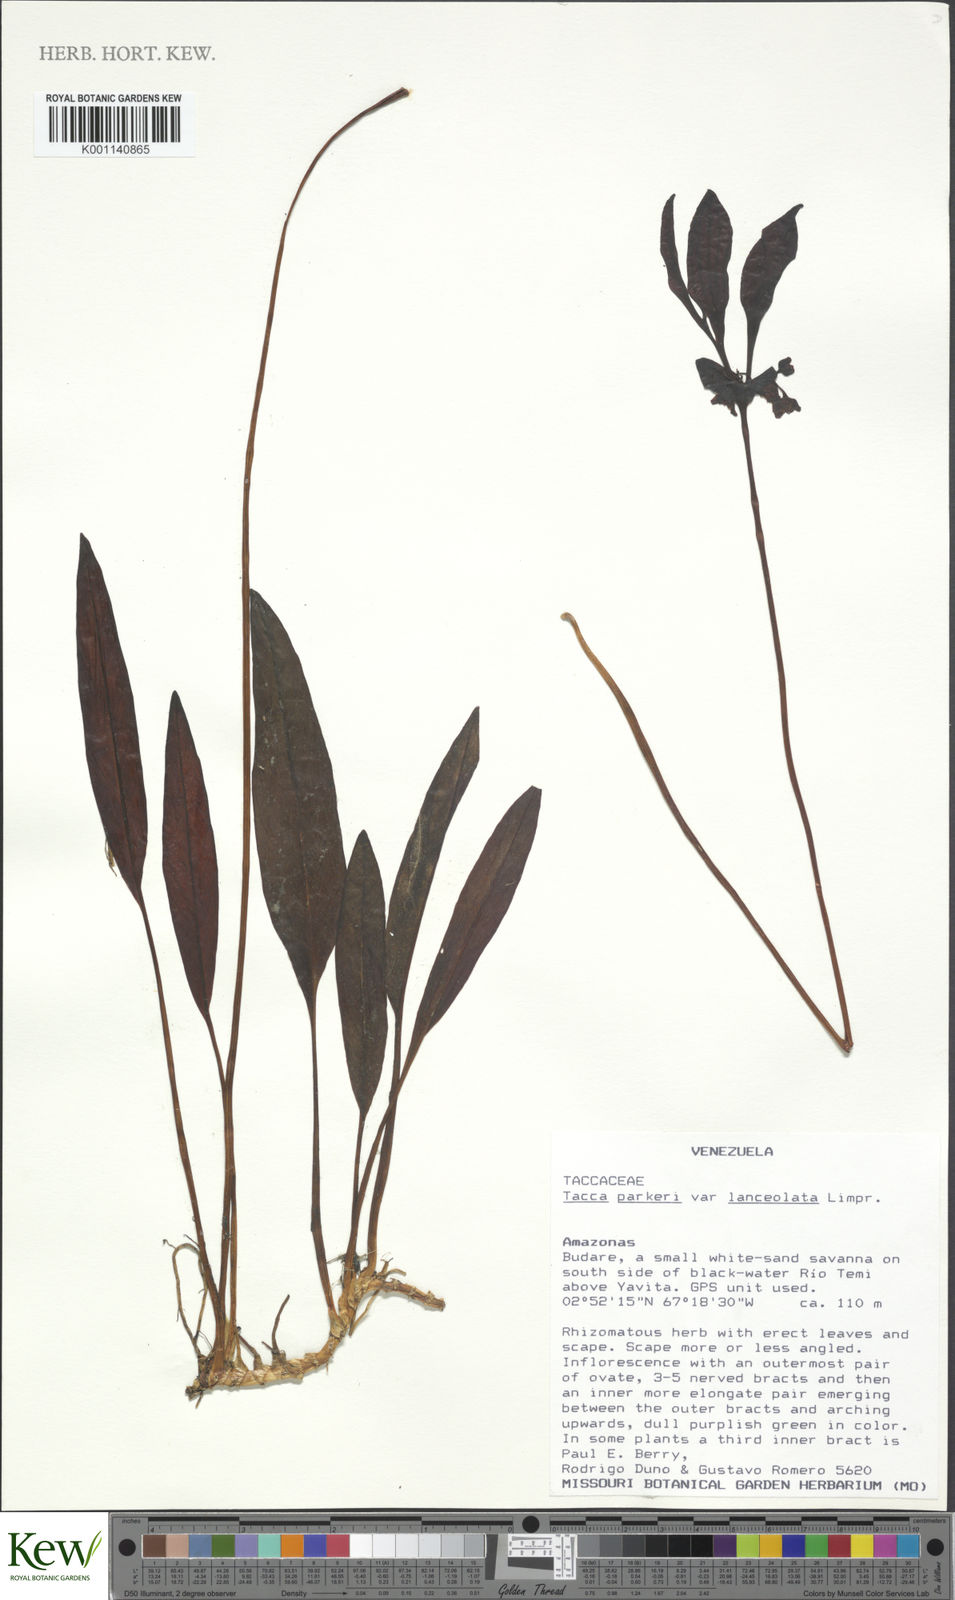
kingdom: Plantae
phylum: Tracheophyta
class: Liliopsida
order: Dioscoreales
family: Dioscoreaceae
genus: Tacca
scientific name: Tacca parkeri
